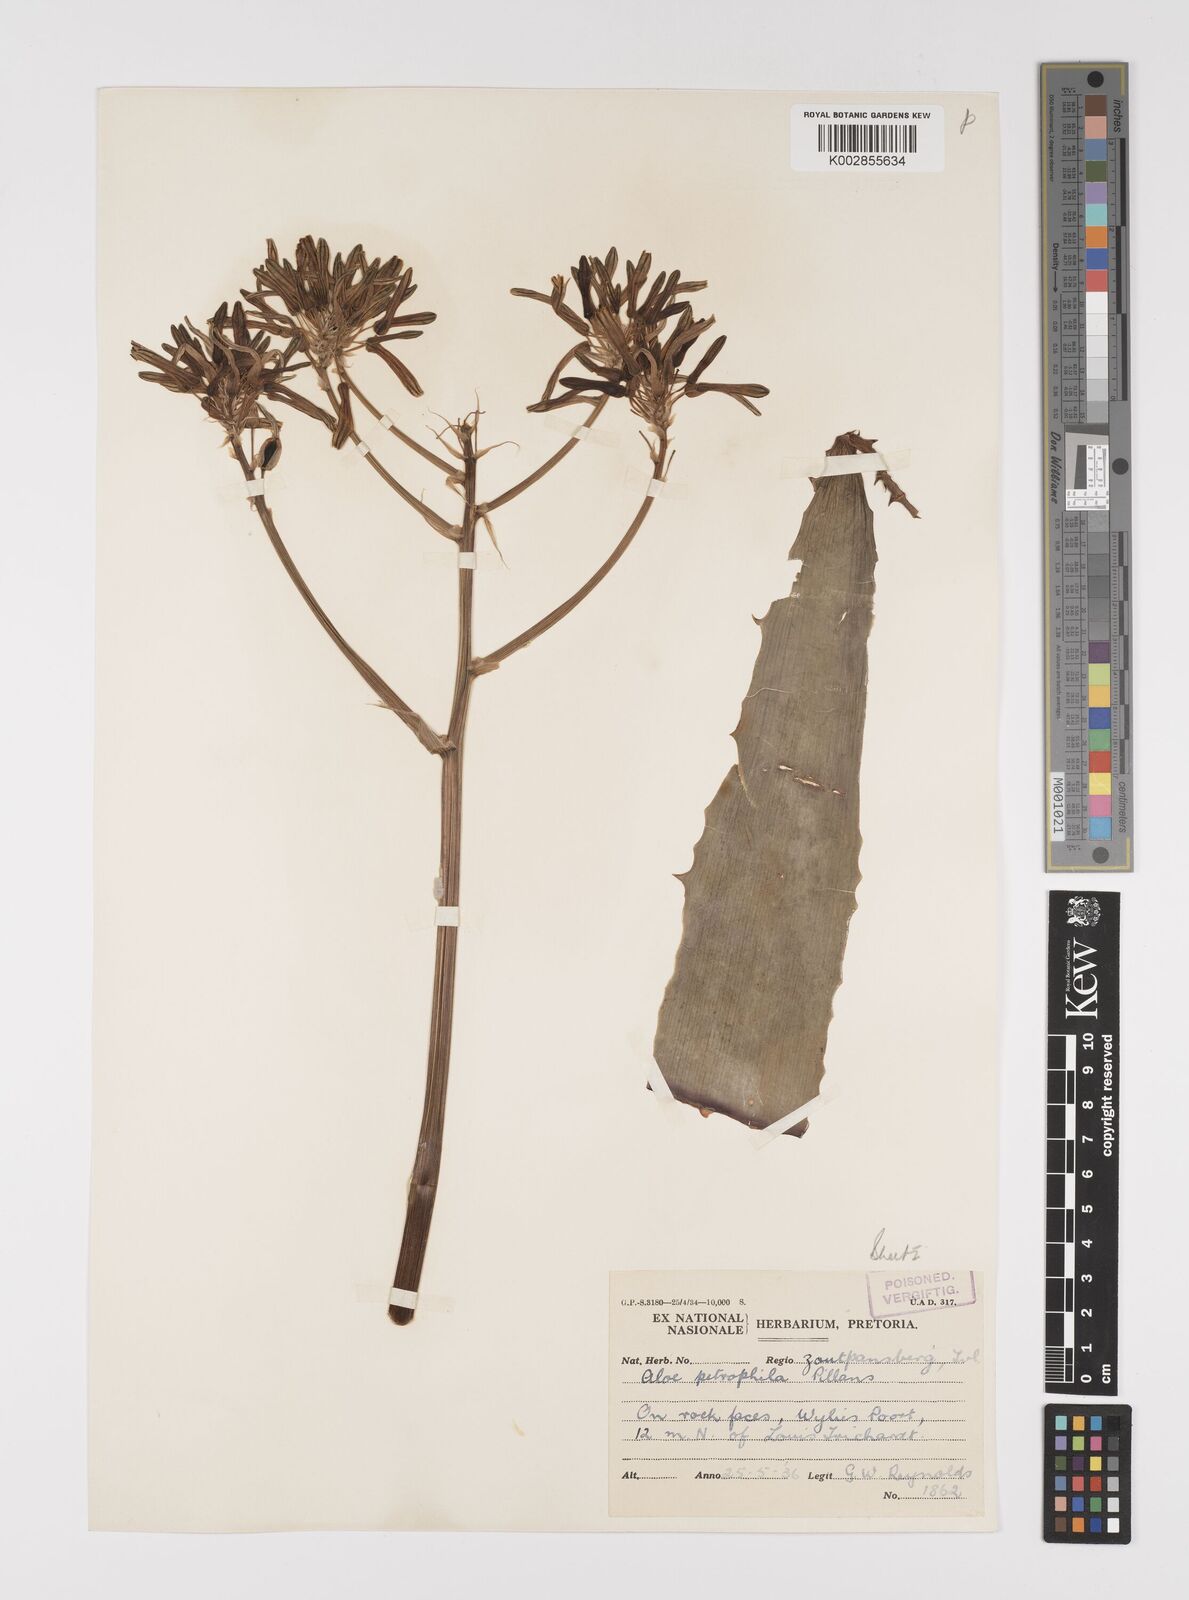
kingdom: Plantae
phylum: Tracheophyta
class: Liliopsida
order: Asparagales
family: Asphodelaceae
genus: Aloe
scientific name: Aloe petrophila
